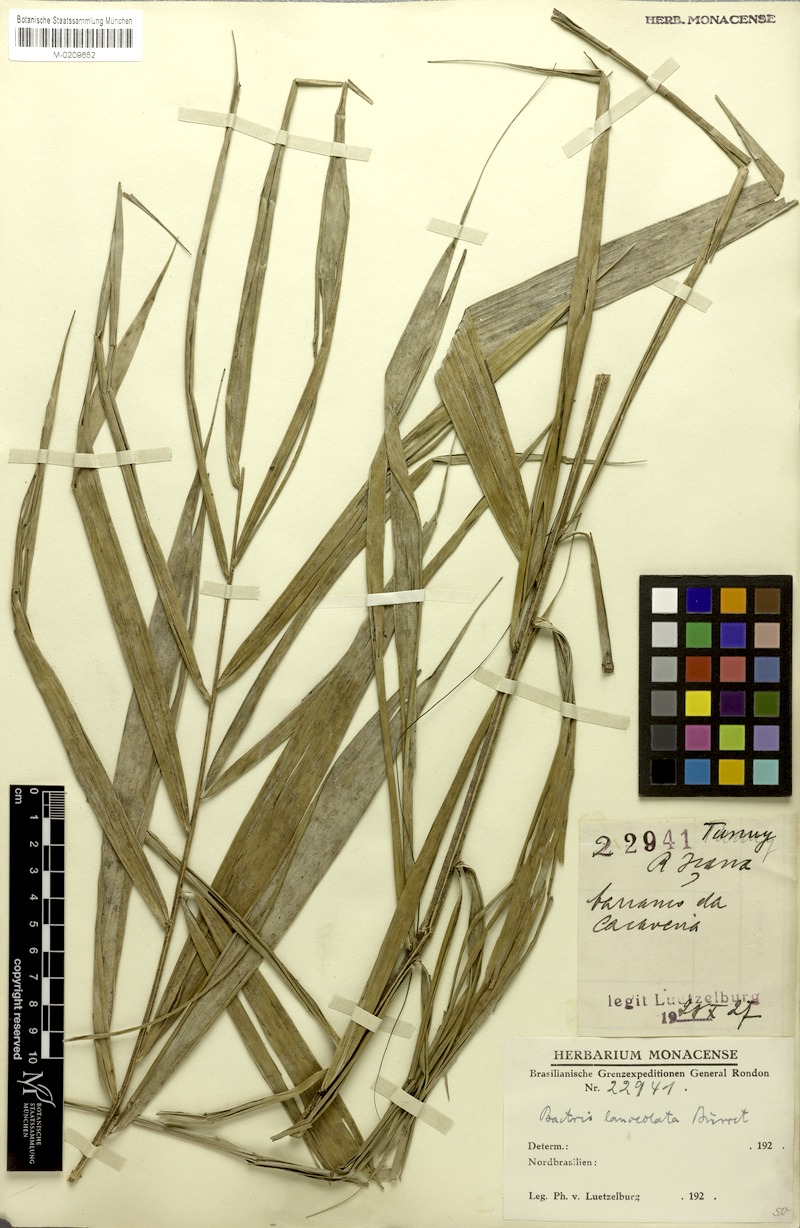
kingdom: Plantae
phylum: Tracheophyta
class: Liliopsida
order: Arecales
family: Arecaceae
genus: Bactris
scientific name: Bactris campestris
